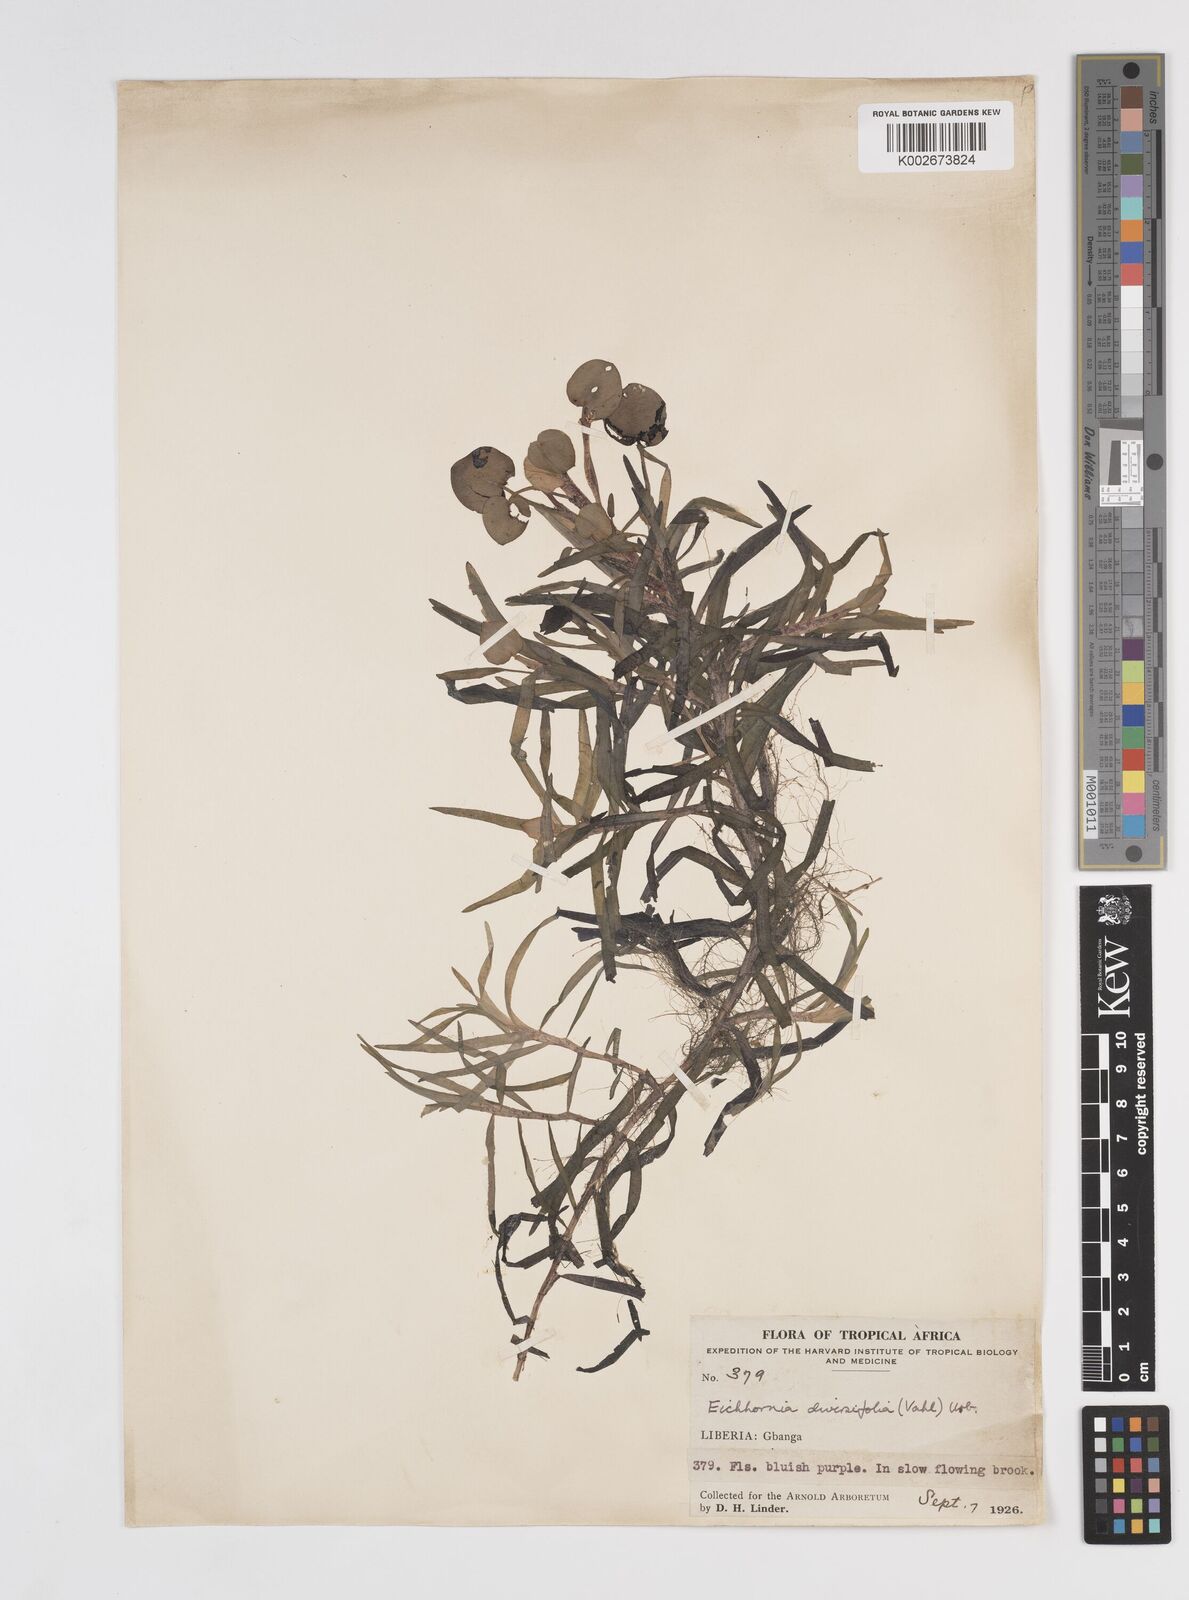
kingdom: Plantae
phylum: Tracheophyta
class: Liliopsida
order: Commelinales
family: Pontederiaceae
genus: Pontederia
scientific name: Pontederia diversifolia
